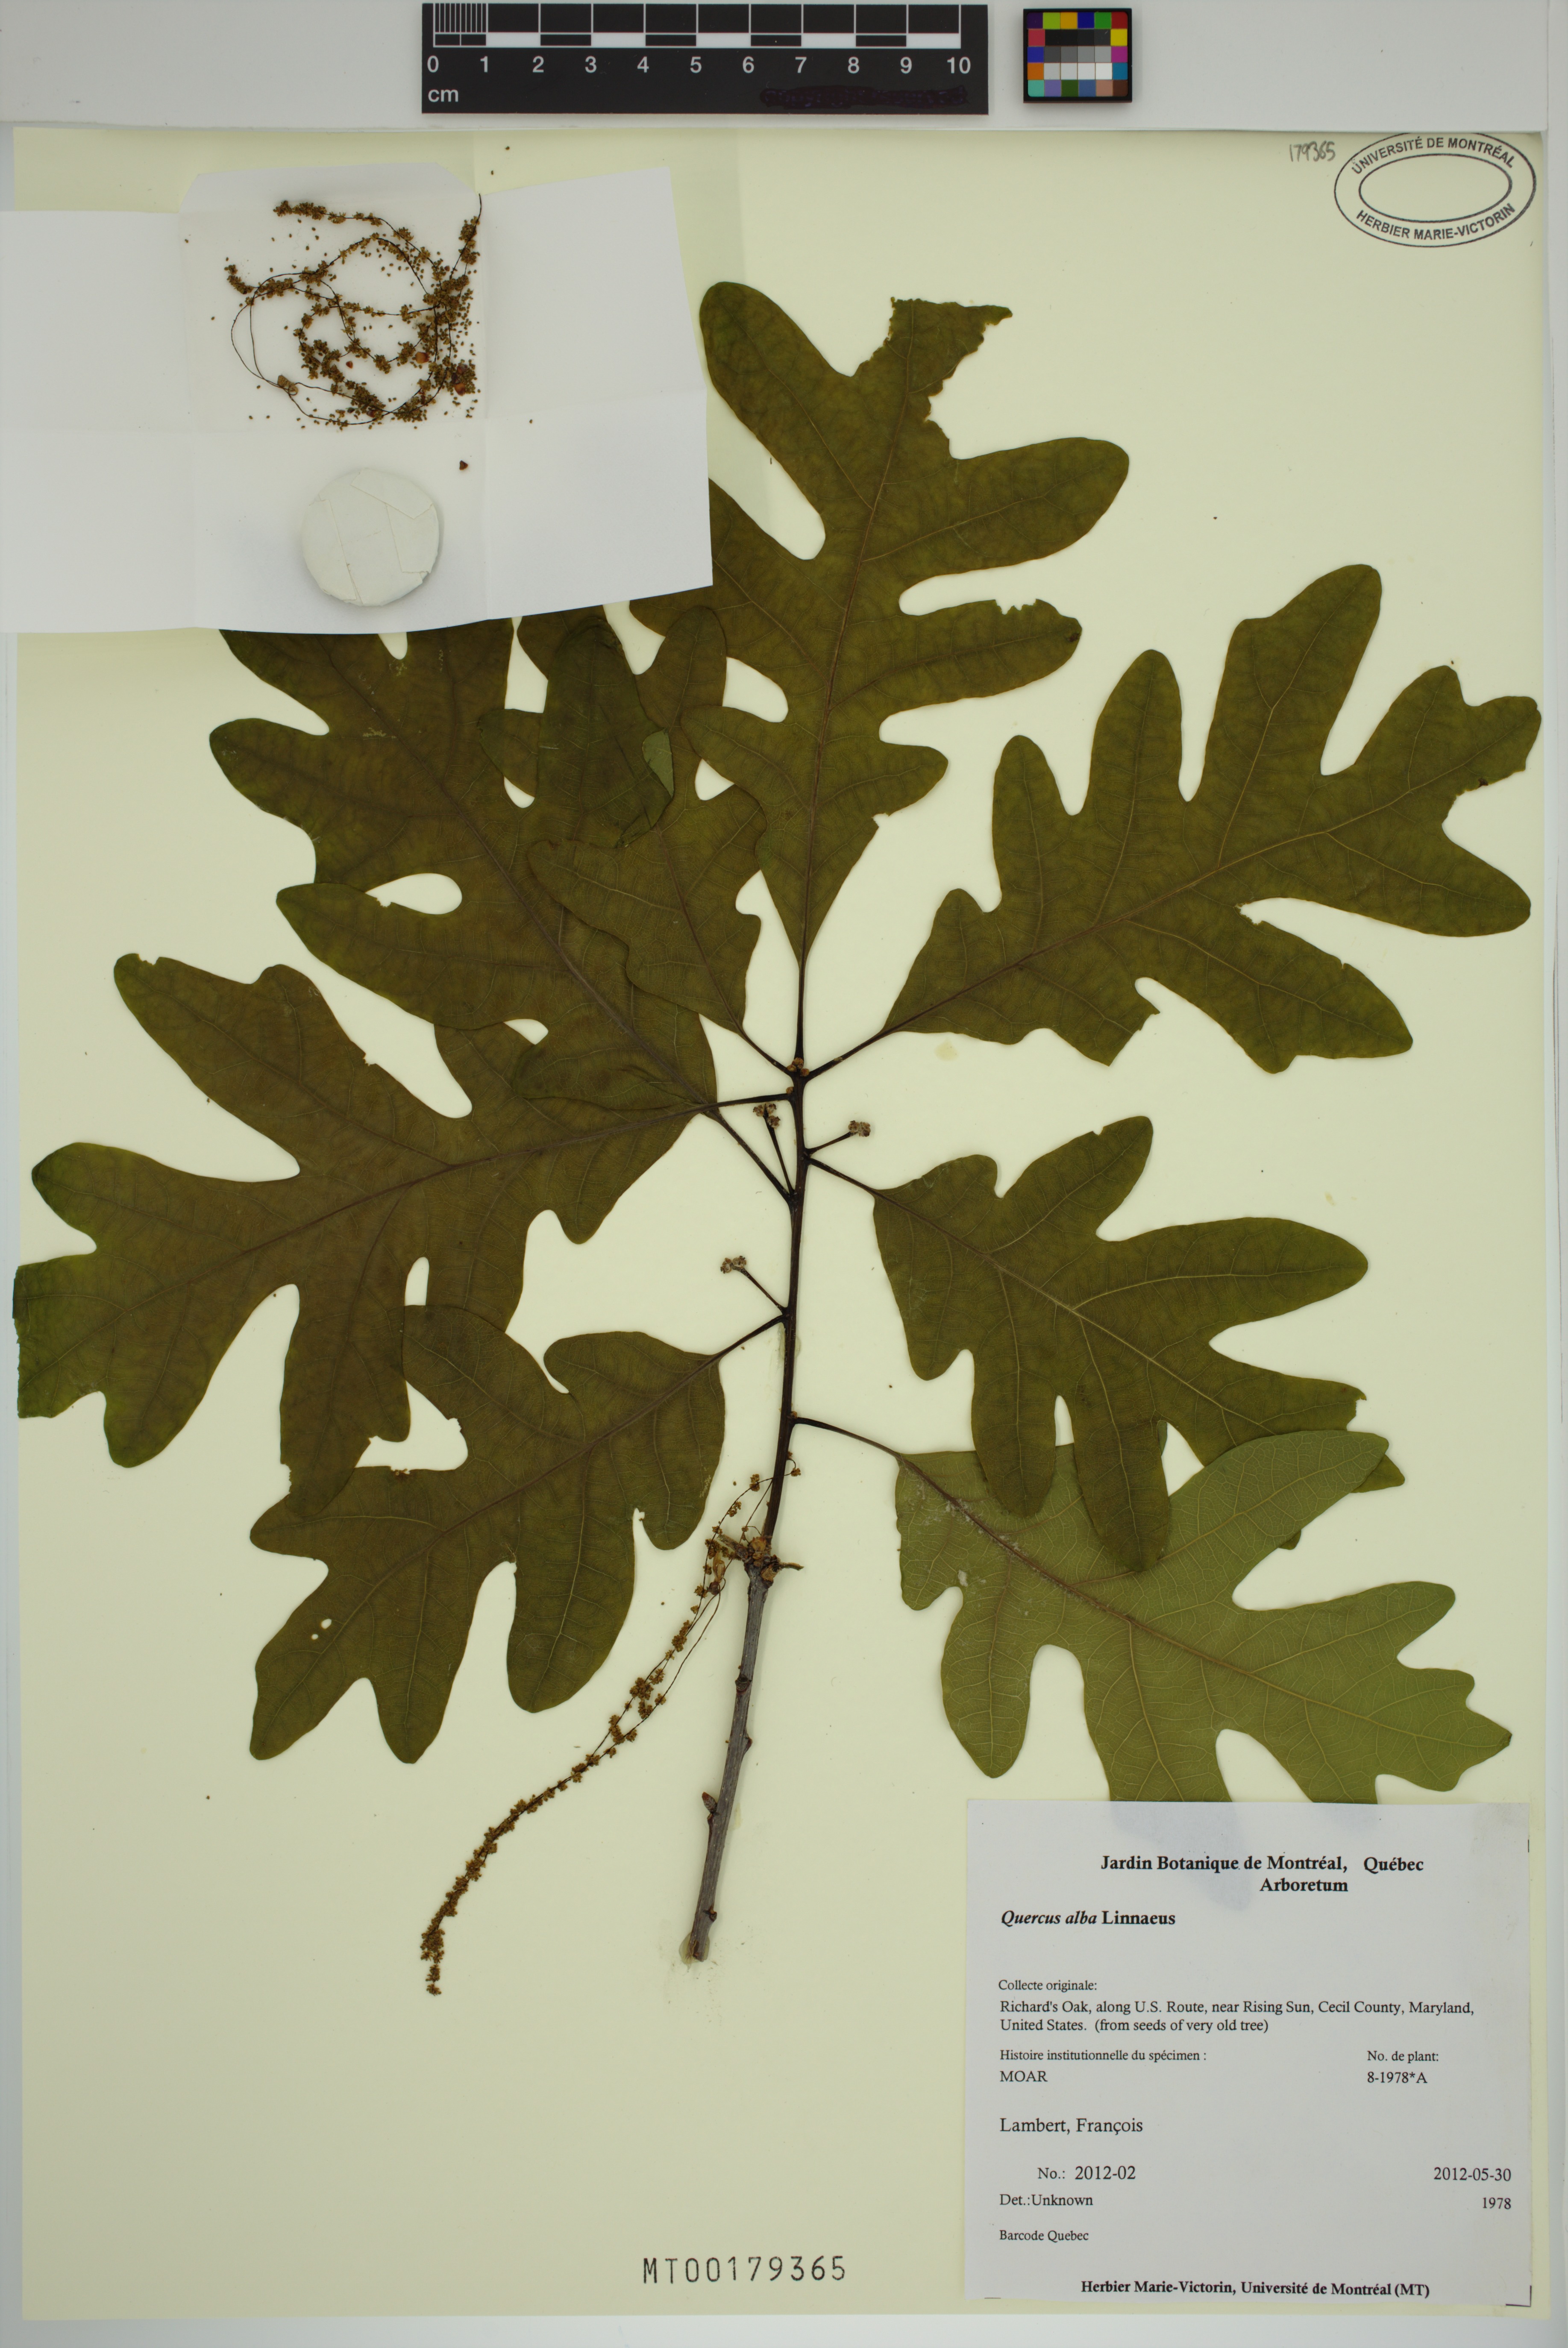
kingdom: Plantae
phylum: Tracheophyta
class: Magnoliopsida
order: Fagales
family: Fagaceae
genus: Quercus
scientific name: Quercus alba
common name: White oak
